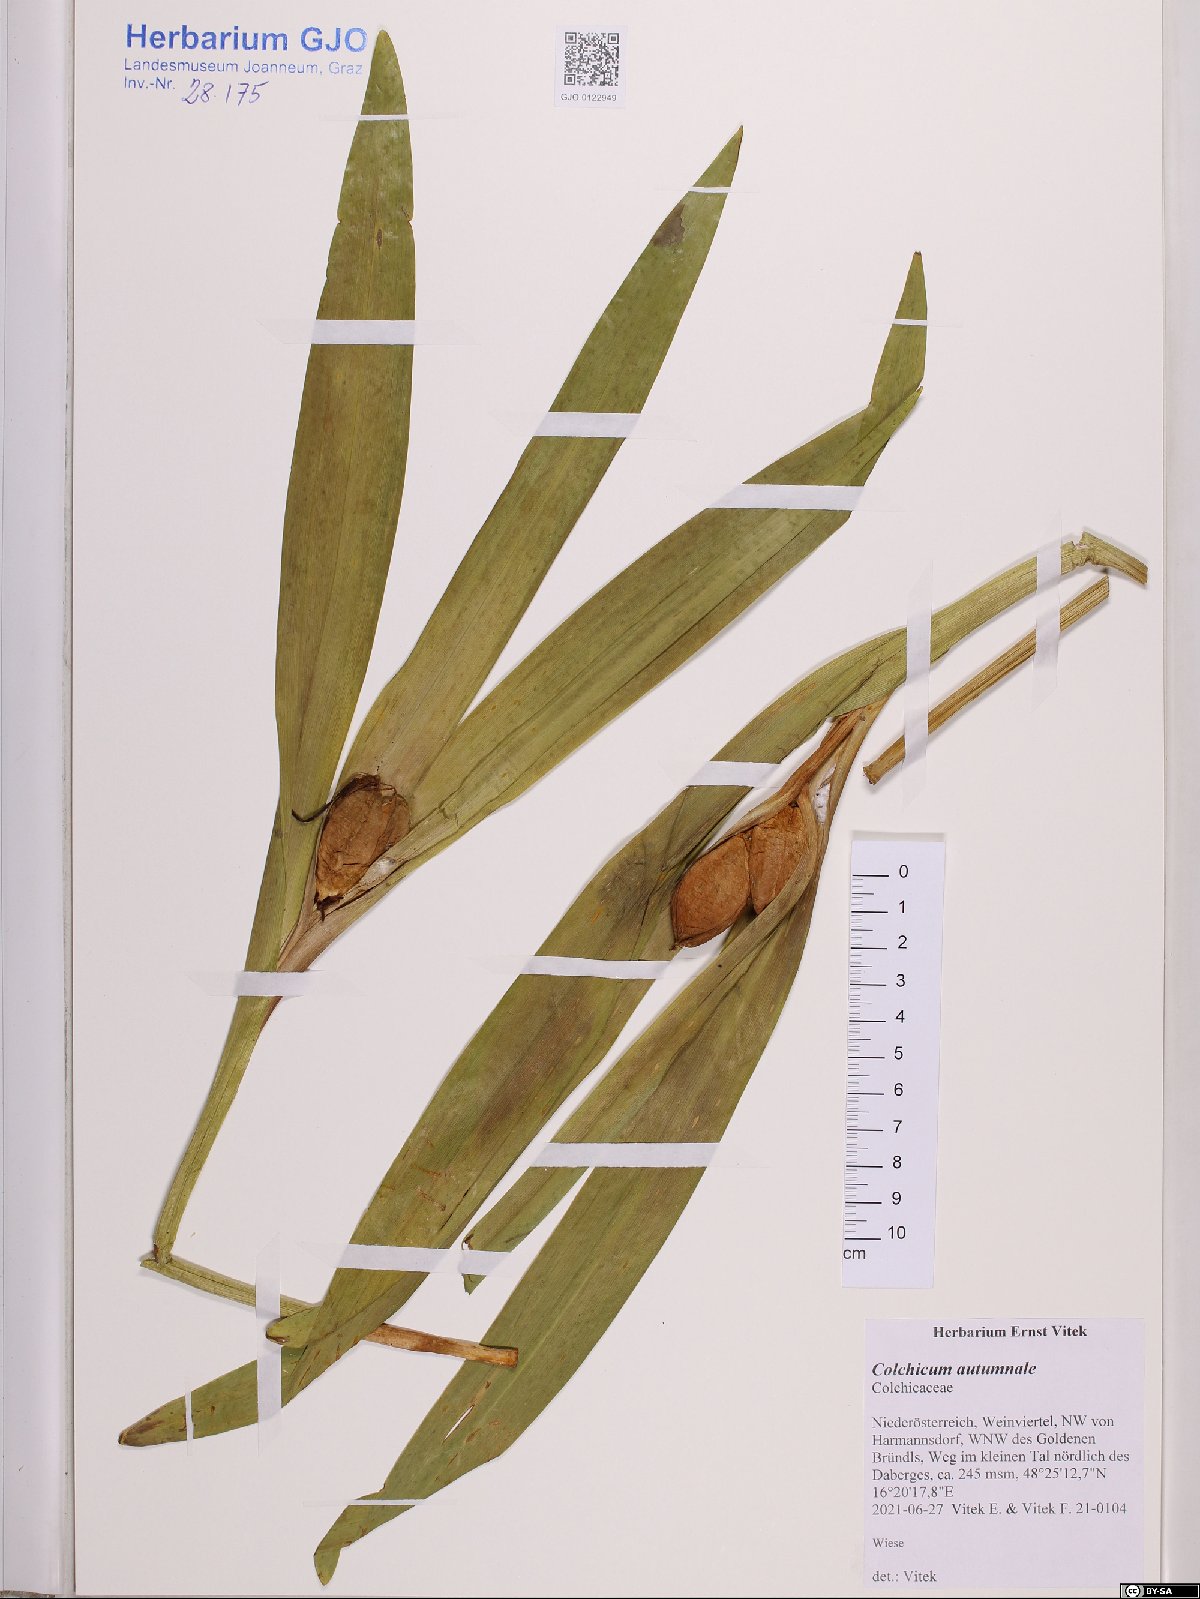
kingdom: Plantae
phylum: Tracheophyta
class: Liliopsida
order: Liliales
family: Colchicaceae
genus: Colchicum
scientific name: Colchicum autumnale
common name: Autumn crocus
